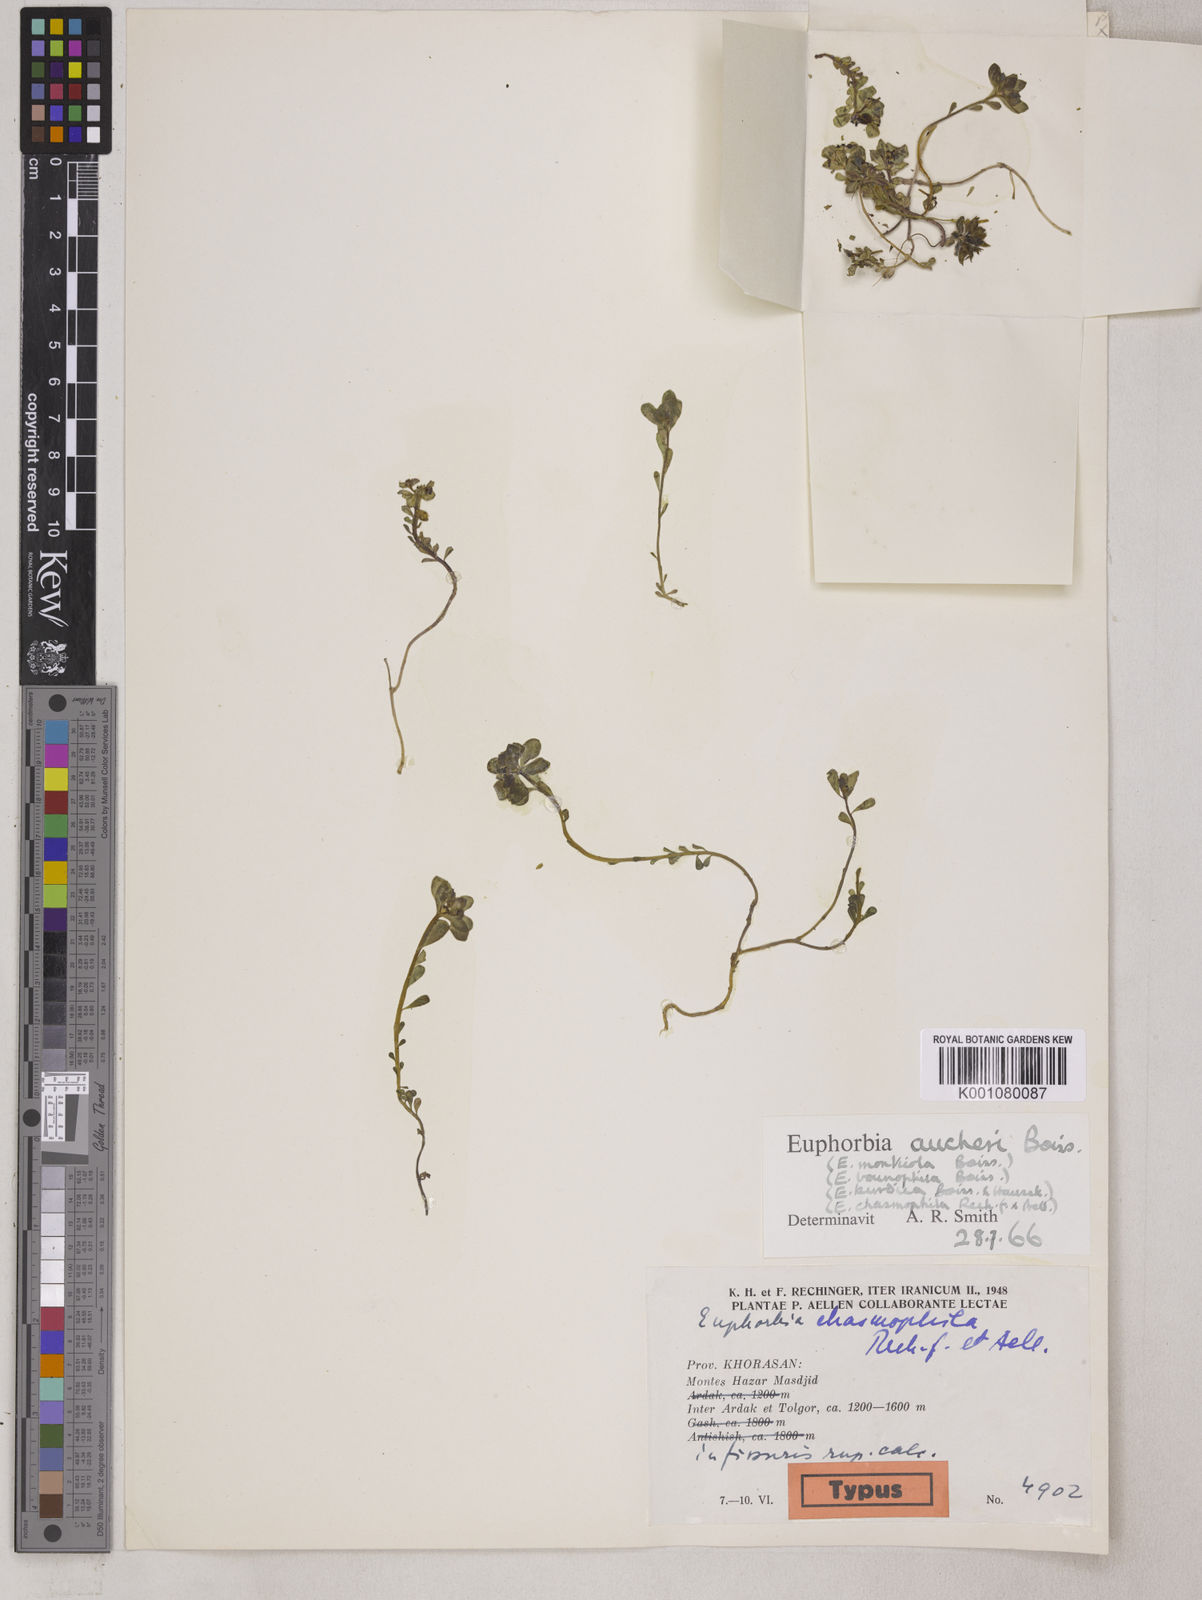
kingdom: Plantae
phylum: Tracheophyta
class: Magnoliopsida
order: Malpighiales
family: Euphorbiaceae
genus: Euphorbia
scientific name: Euphorbia aucheri
